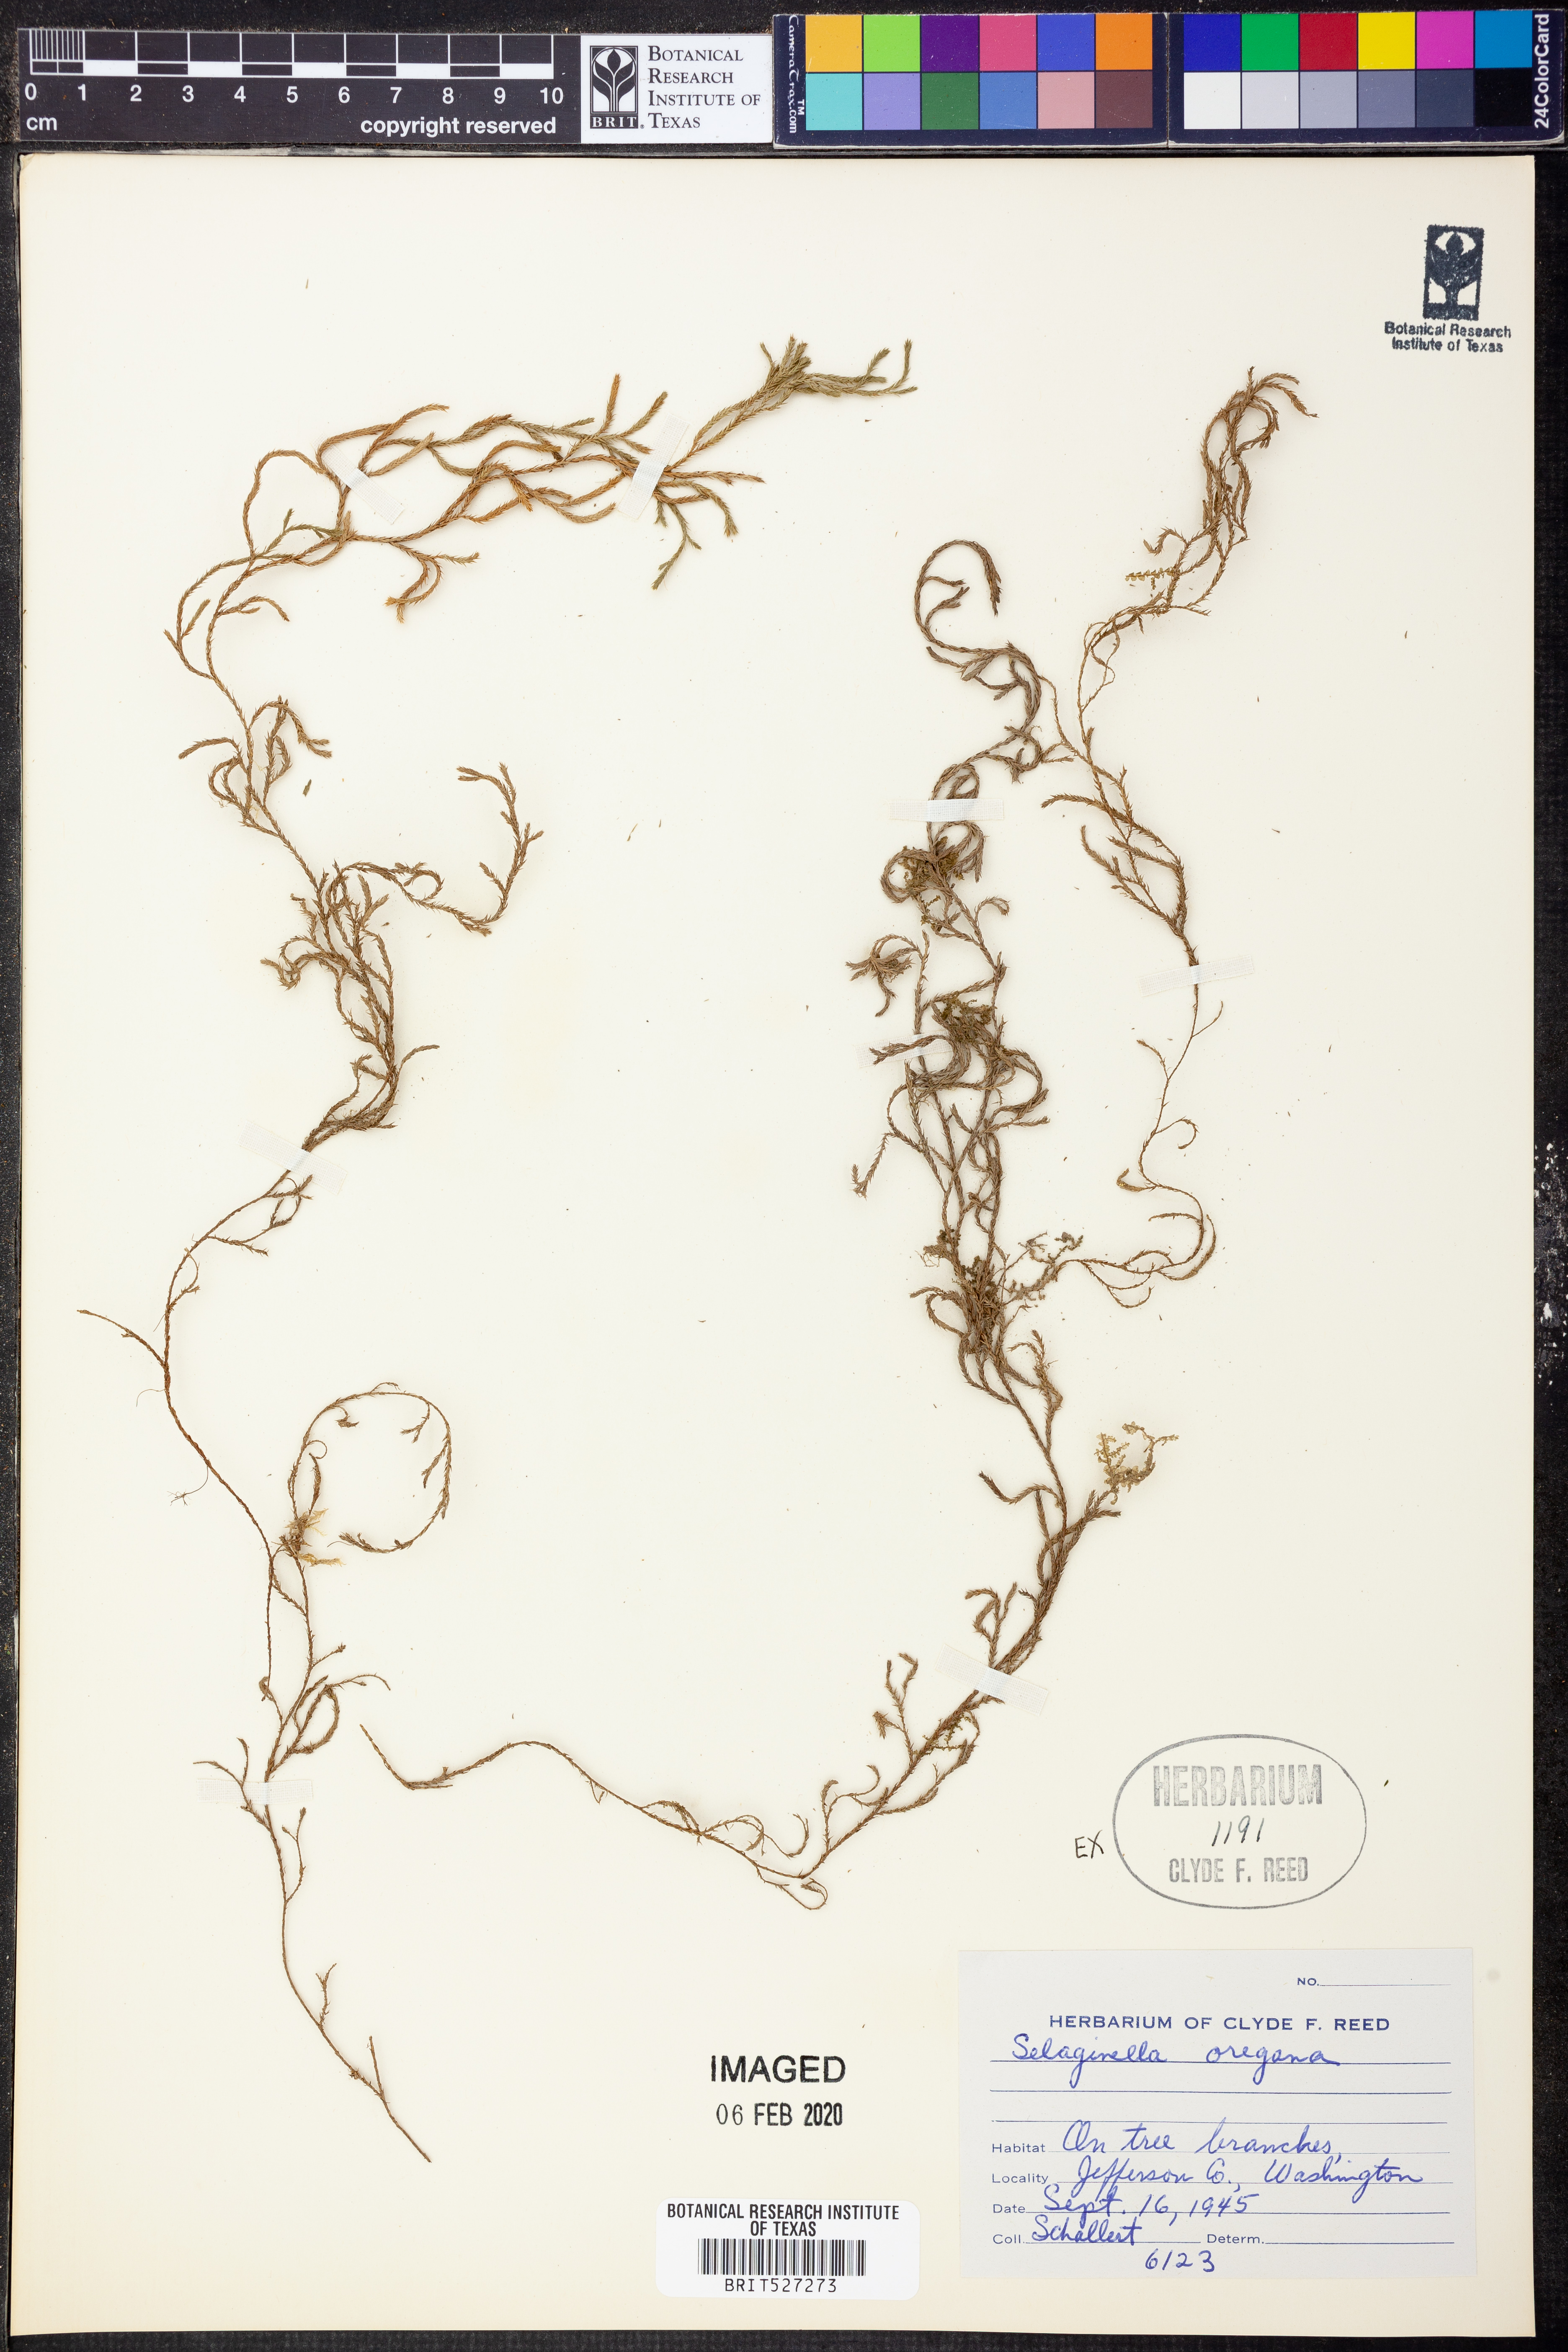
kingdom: Plantae
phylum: Tracheophyta
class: Lycopodiopsida
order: Selaginellales
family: Selaginellaceae
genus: Selaginella
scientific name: Selaginella oregana
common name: Oregon selaginella
